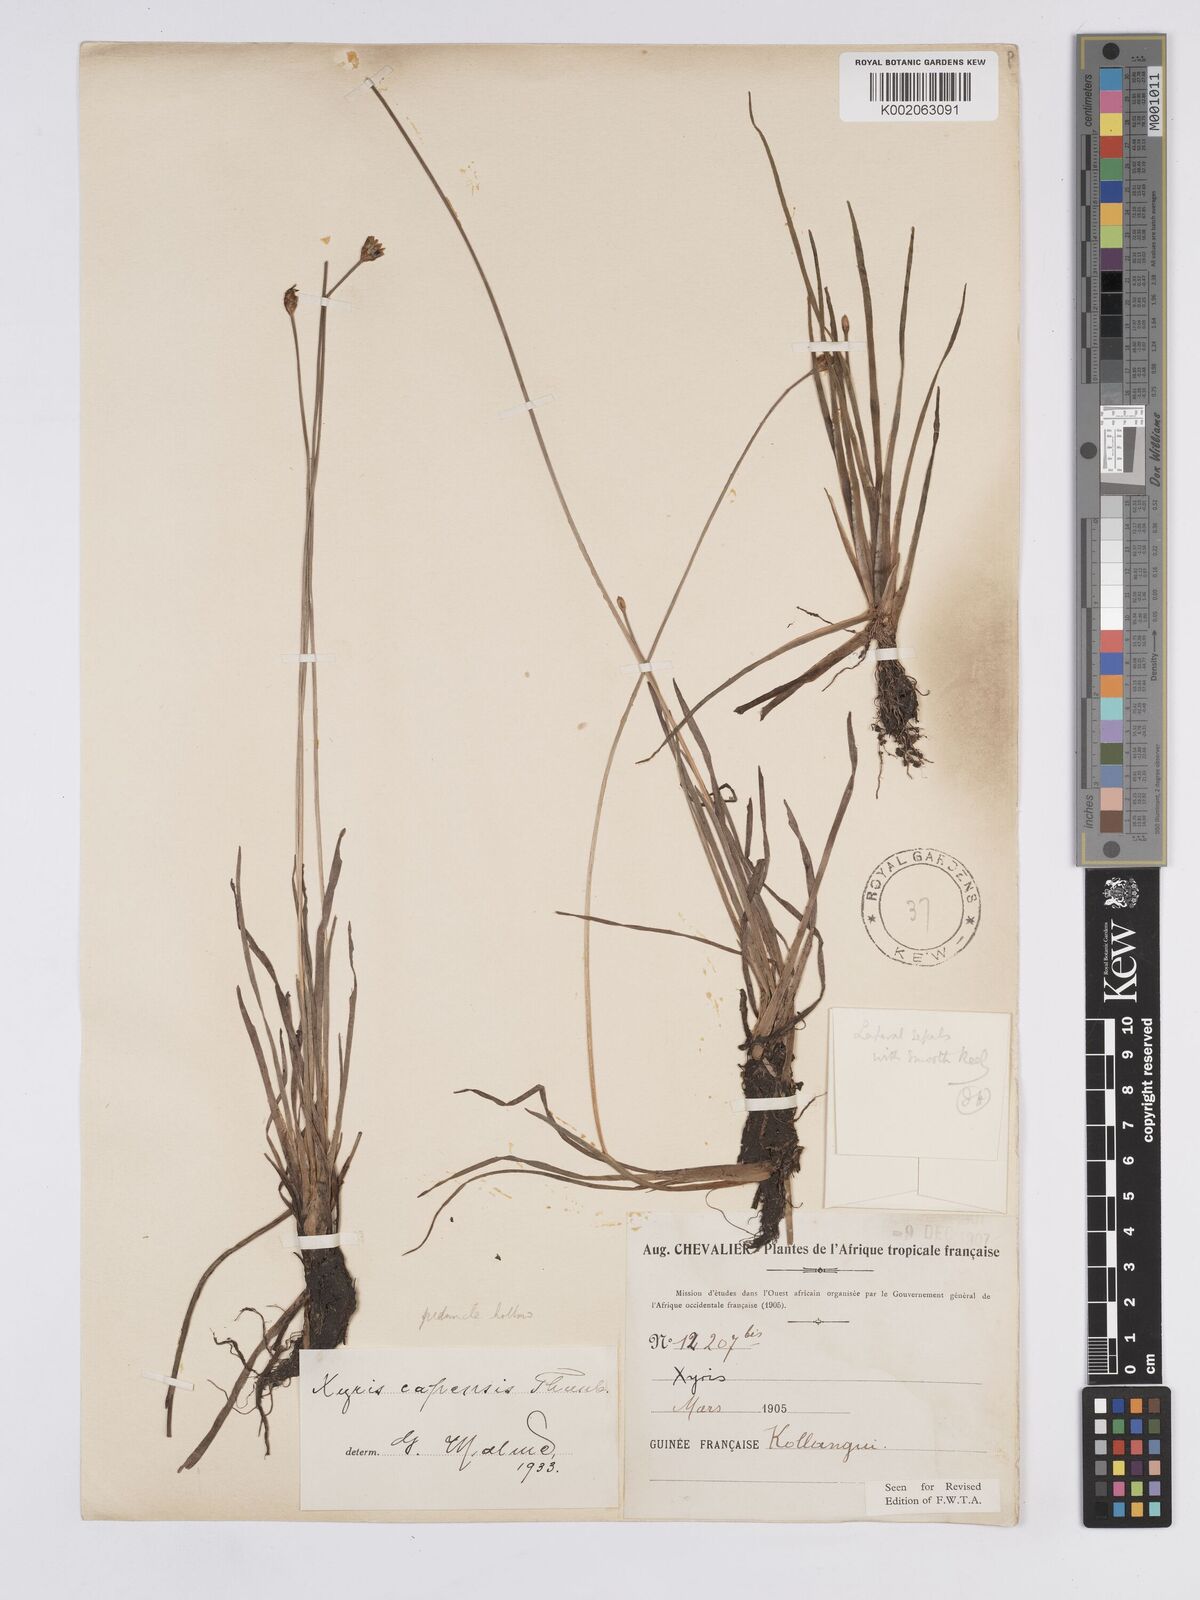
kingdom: Plantae
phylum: Tracheophyta
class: Liliopsida
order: Poales
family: Xyridaceae
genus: Xyris
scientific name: Xyris capensis
